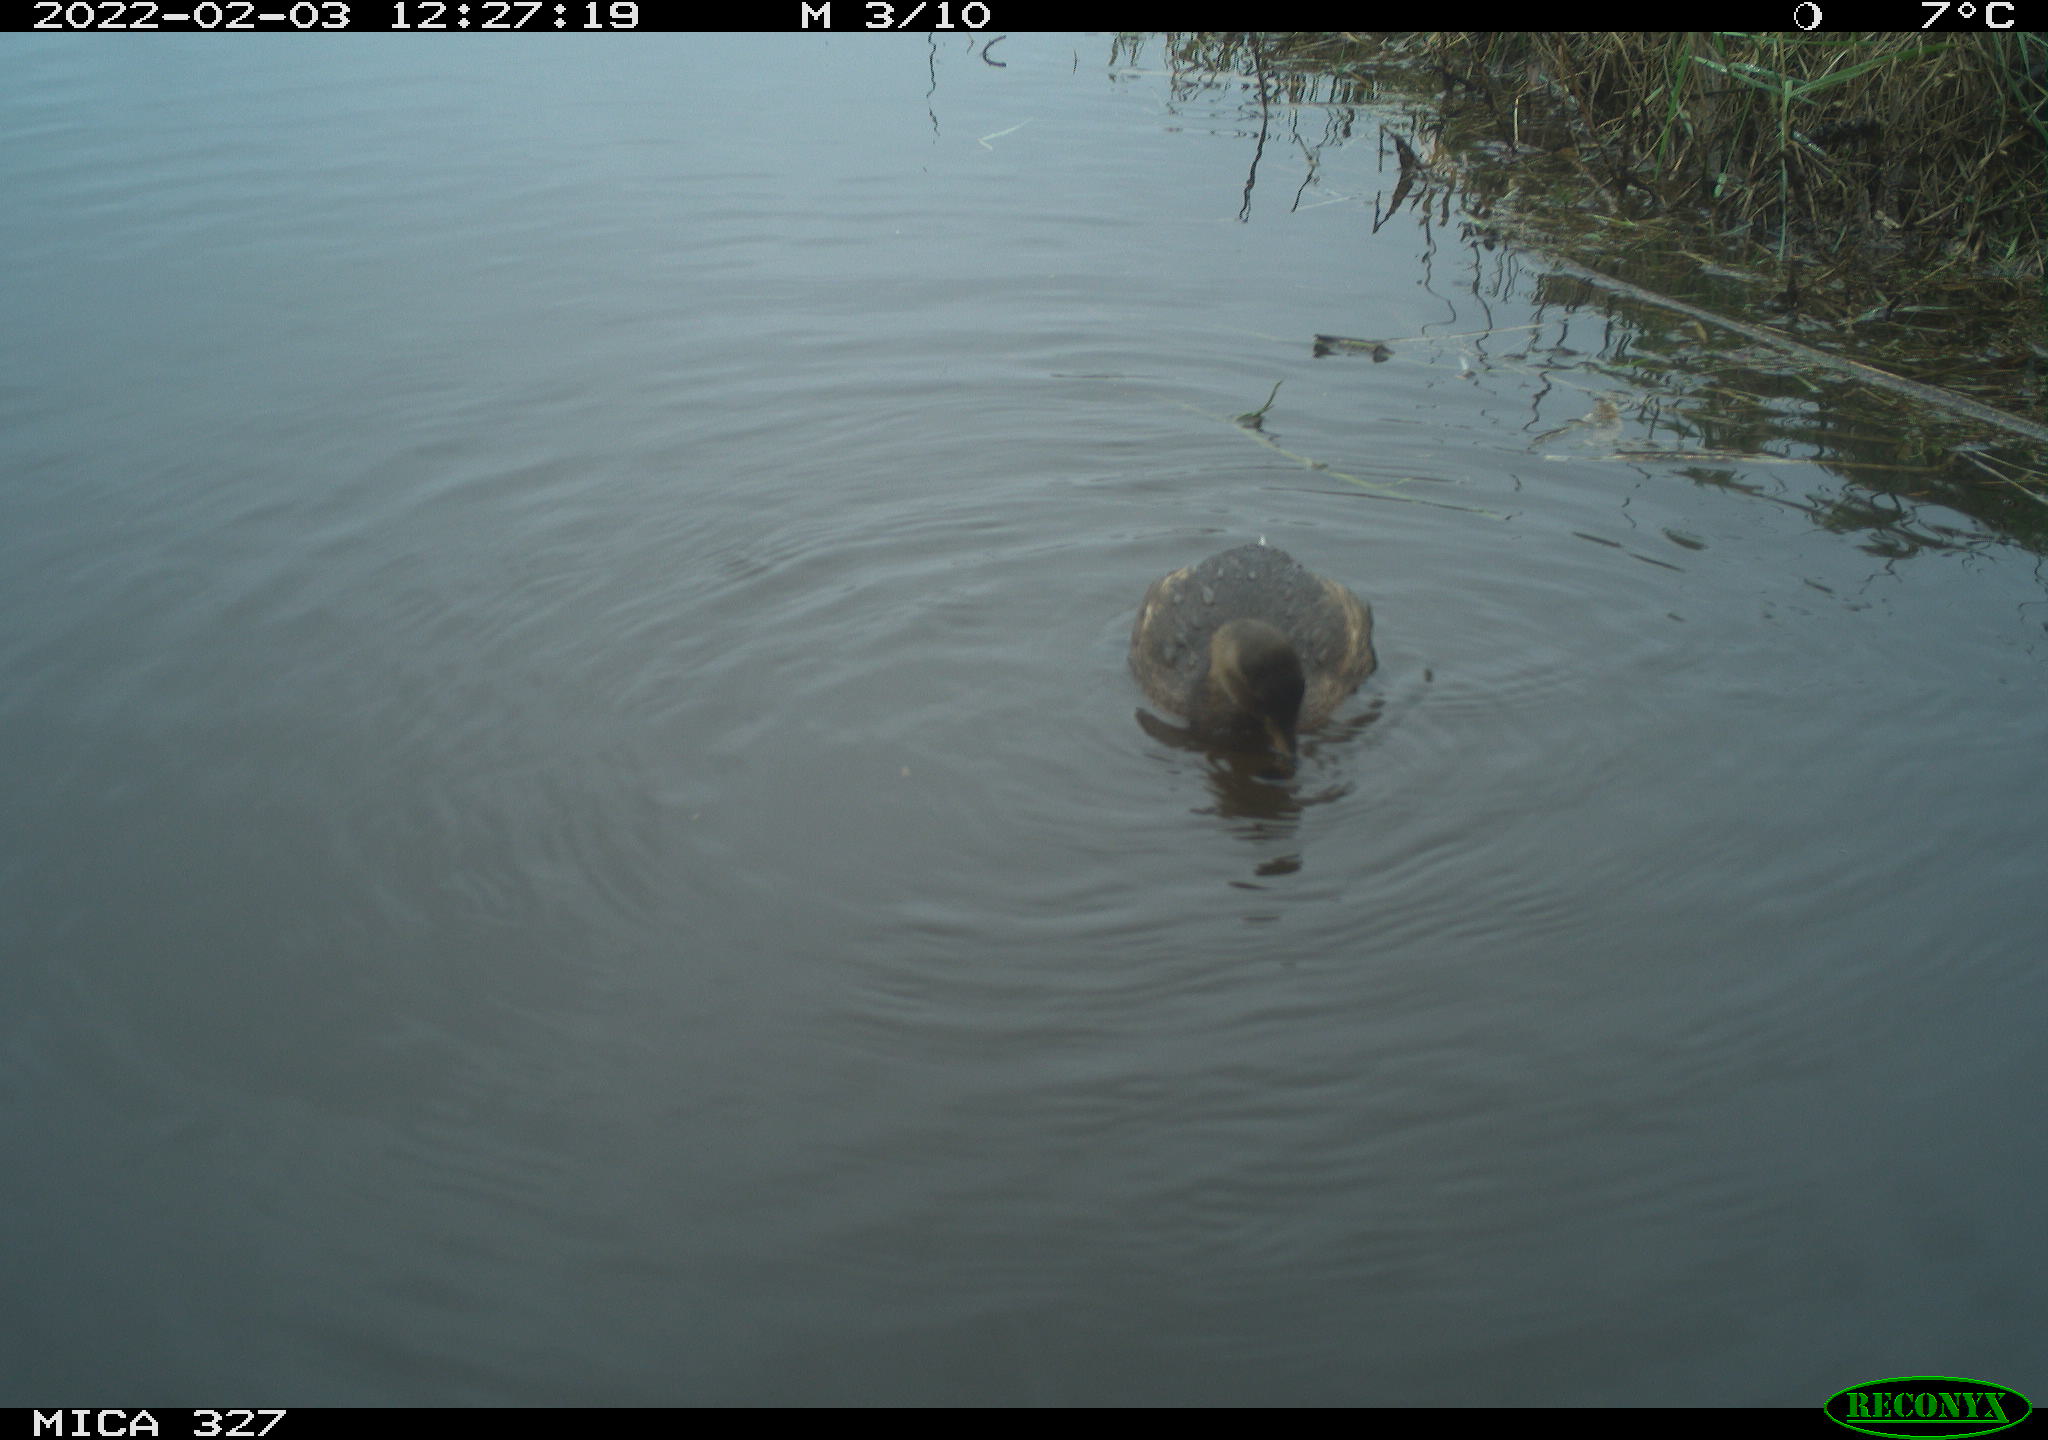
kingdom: Animalia
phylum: Chordata
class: Aves
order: Podicipediformes
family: Podicipedidae
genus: Tachybaptus
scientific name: Tachybaptus ruficollis
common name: Little grebe
